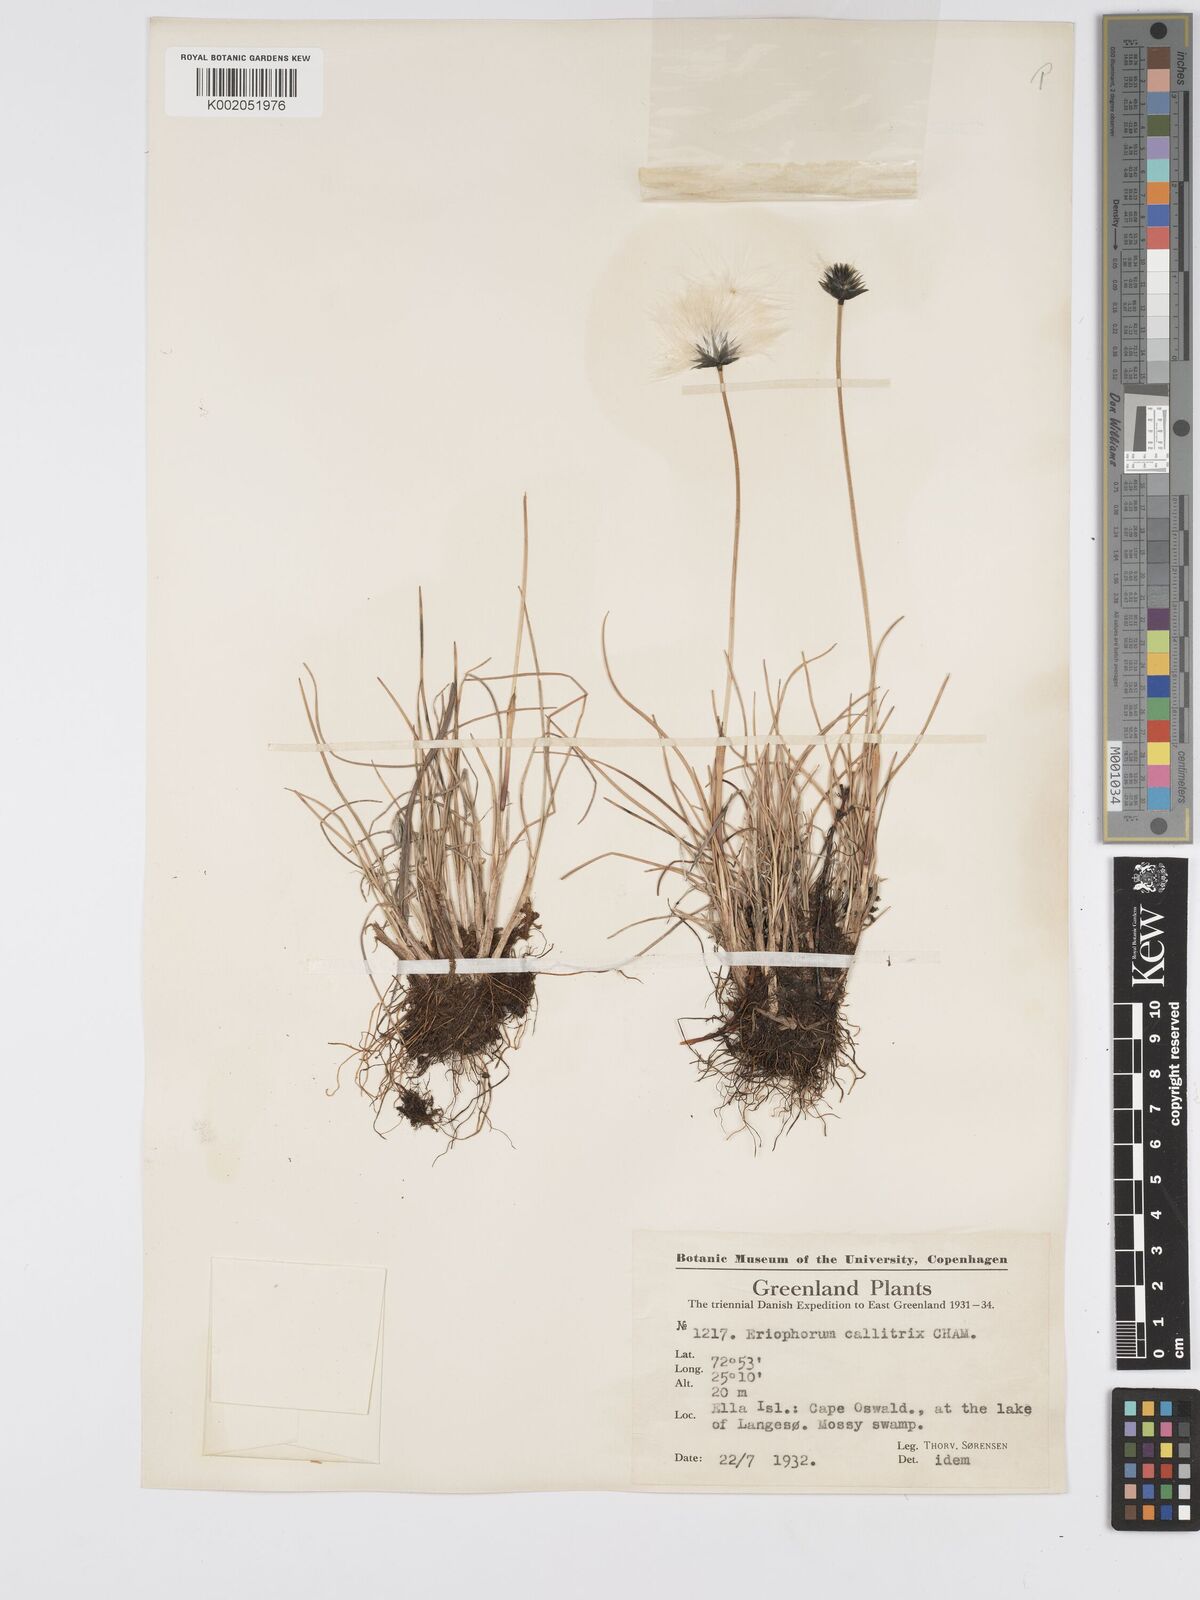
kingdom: Plantae
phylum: Tracheophyta
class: Liliopsida
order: Poales
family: Cyperaceae
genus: Eriophorum
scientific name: Eriophorum callitrix
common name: Arctic cottongrass
